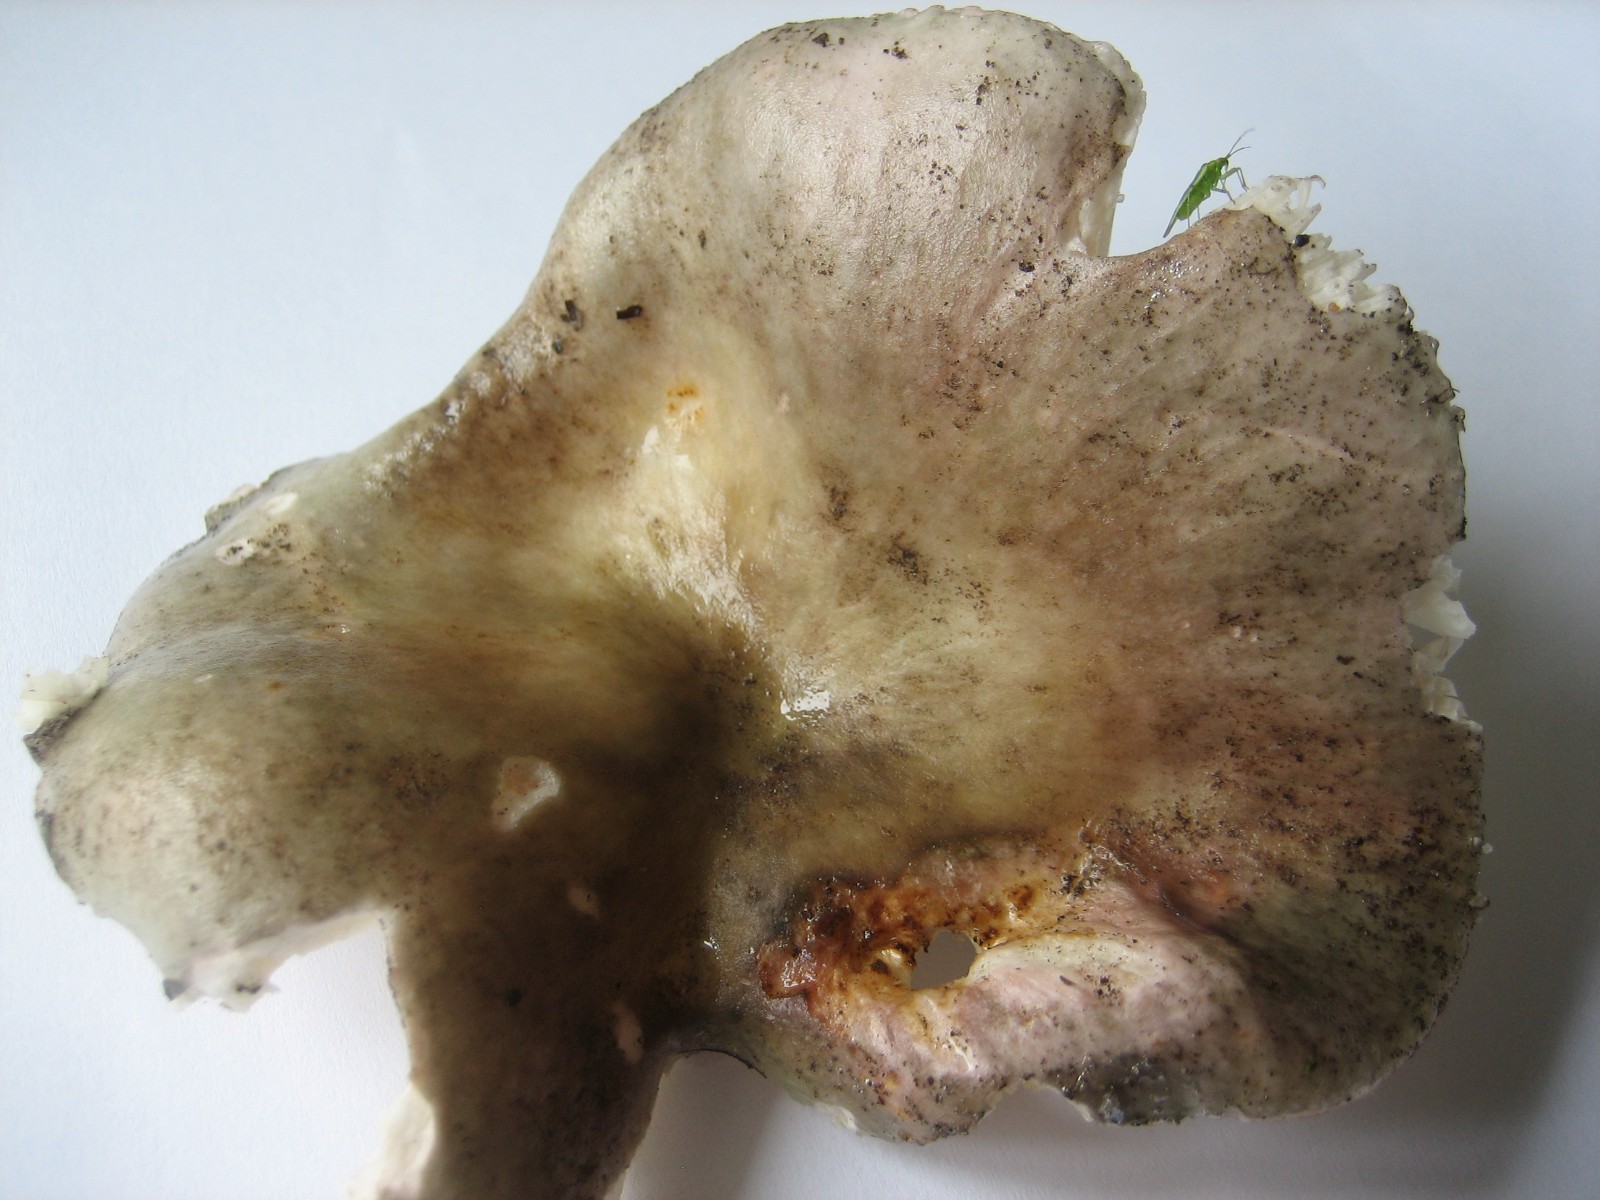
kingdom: Fungi
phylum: Basidiomycota
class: Agaricomycetes
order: Russulales
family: Russulaceae
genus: Russula
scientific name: Russula
